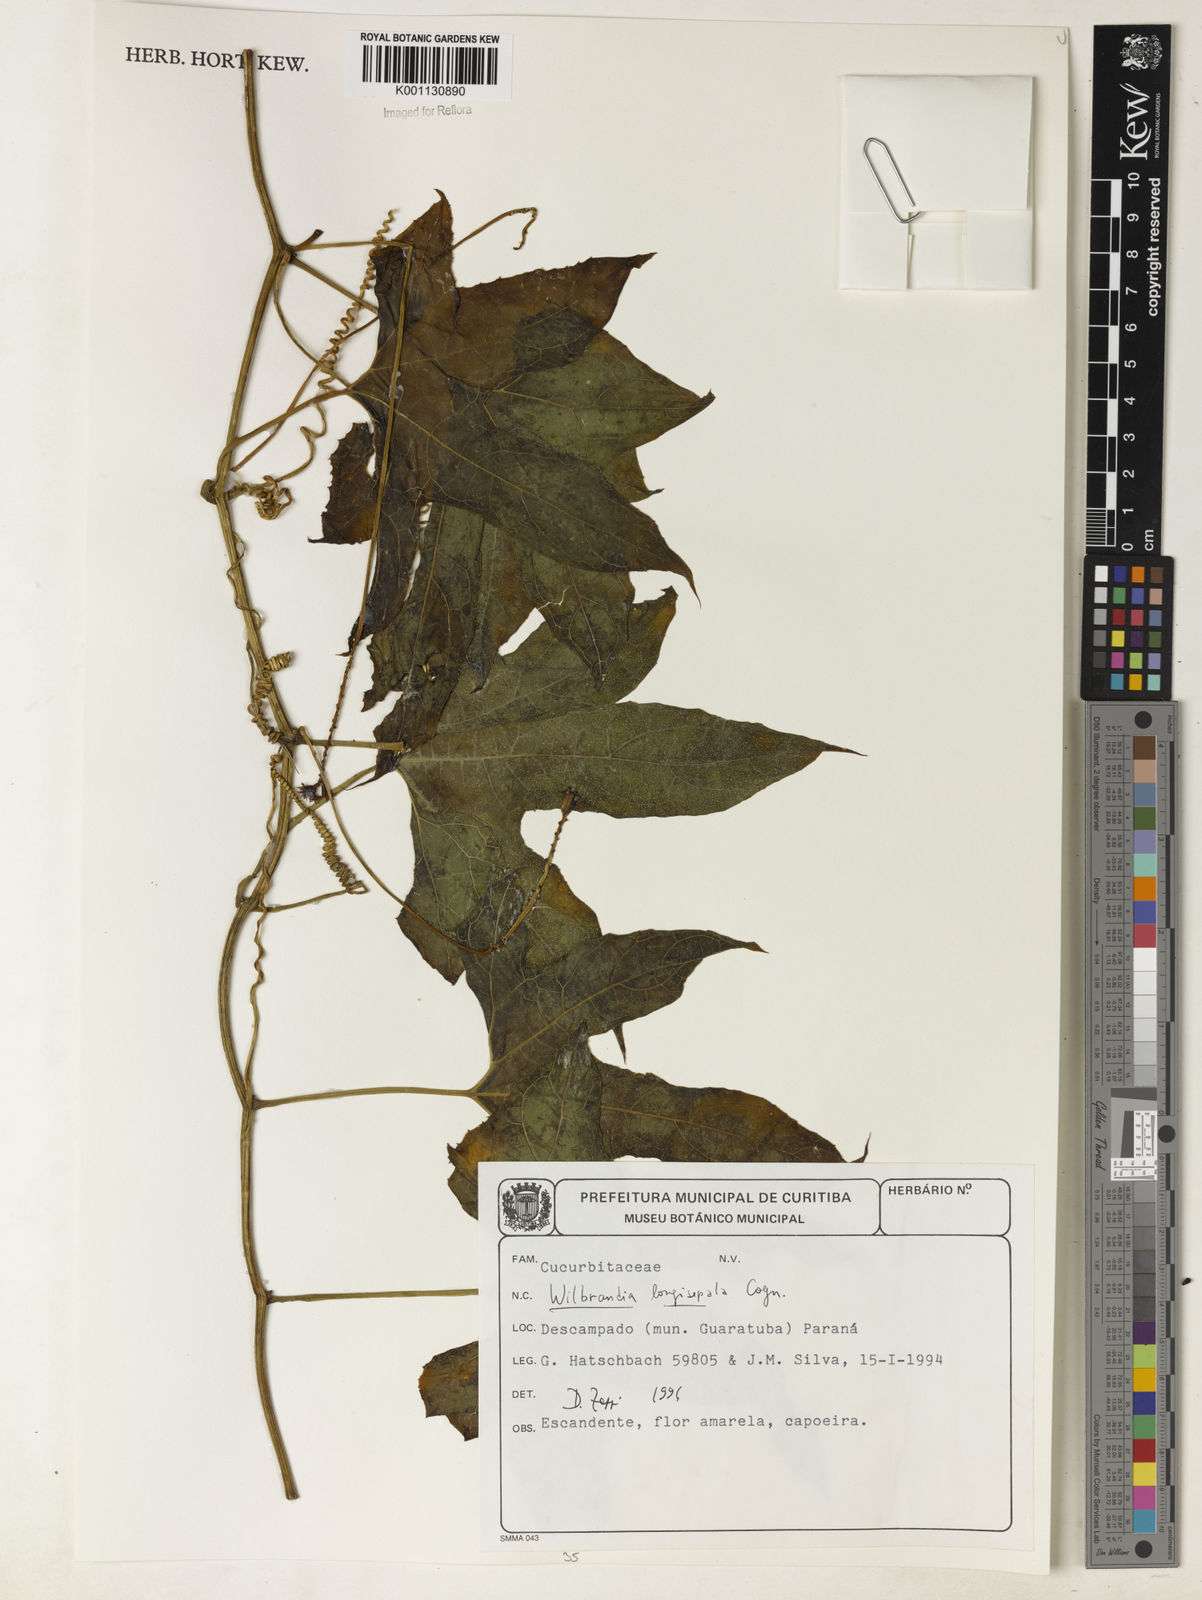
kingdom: Plantae
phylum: Tracheophyta
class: Magnoliopsida
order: Cucurbitales
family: Cucurbitaceae
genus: Wilbrandia
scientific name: Wilbrandia longisepala
